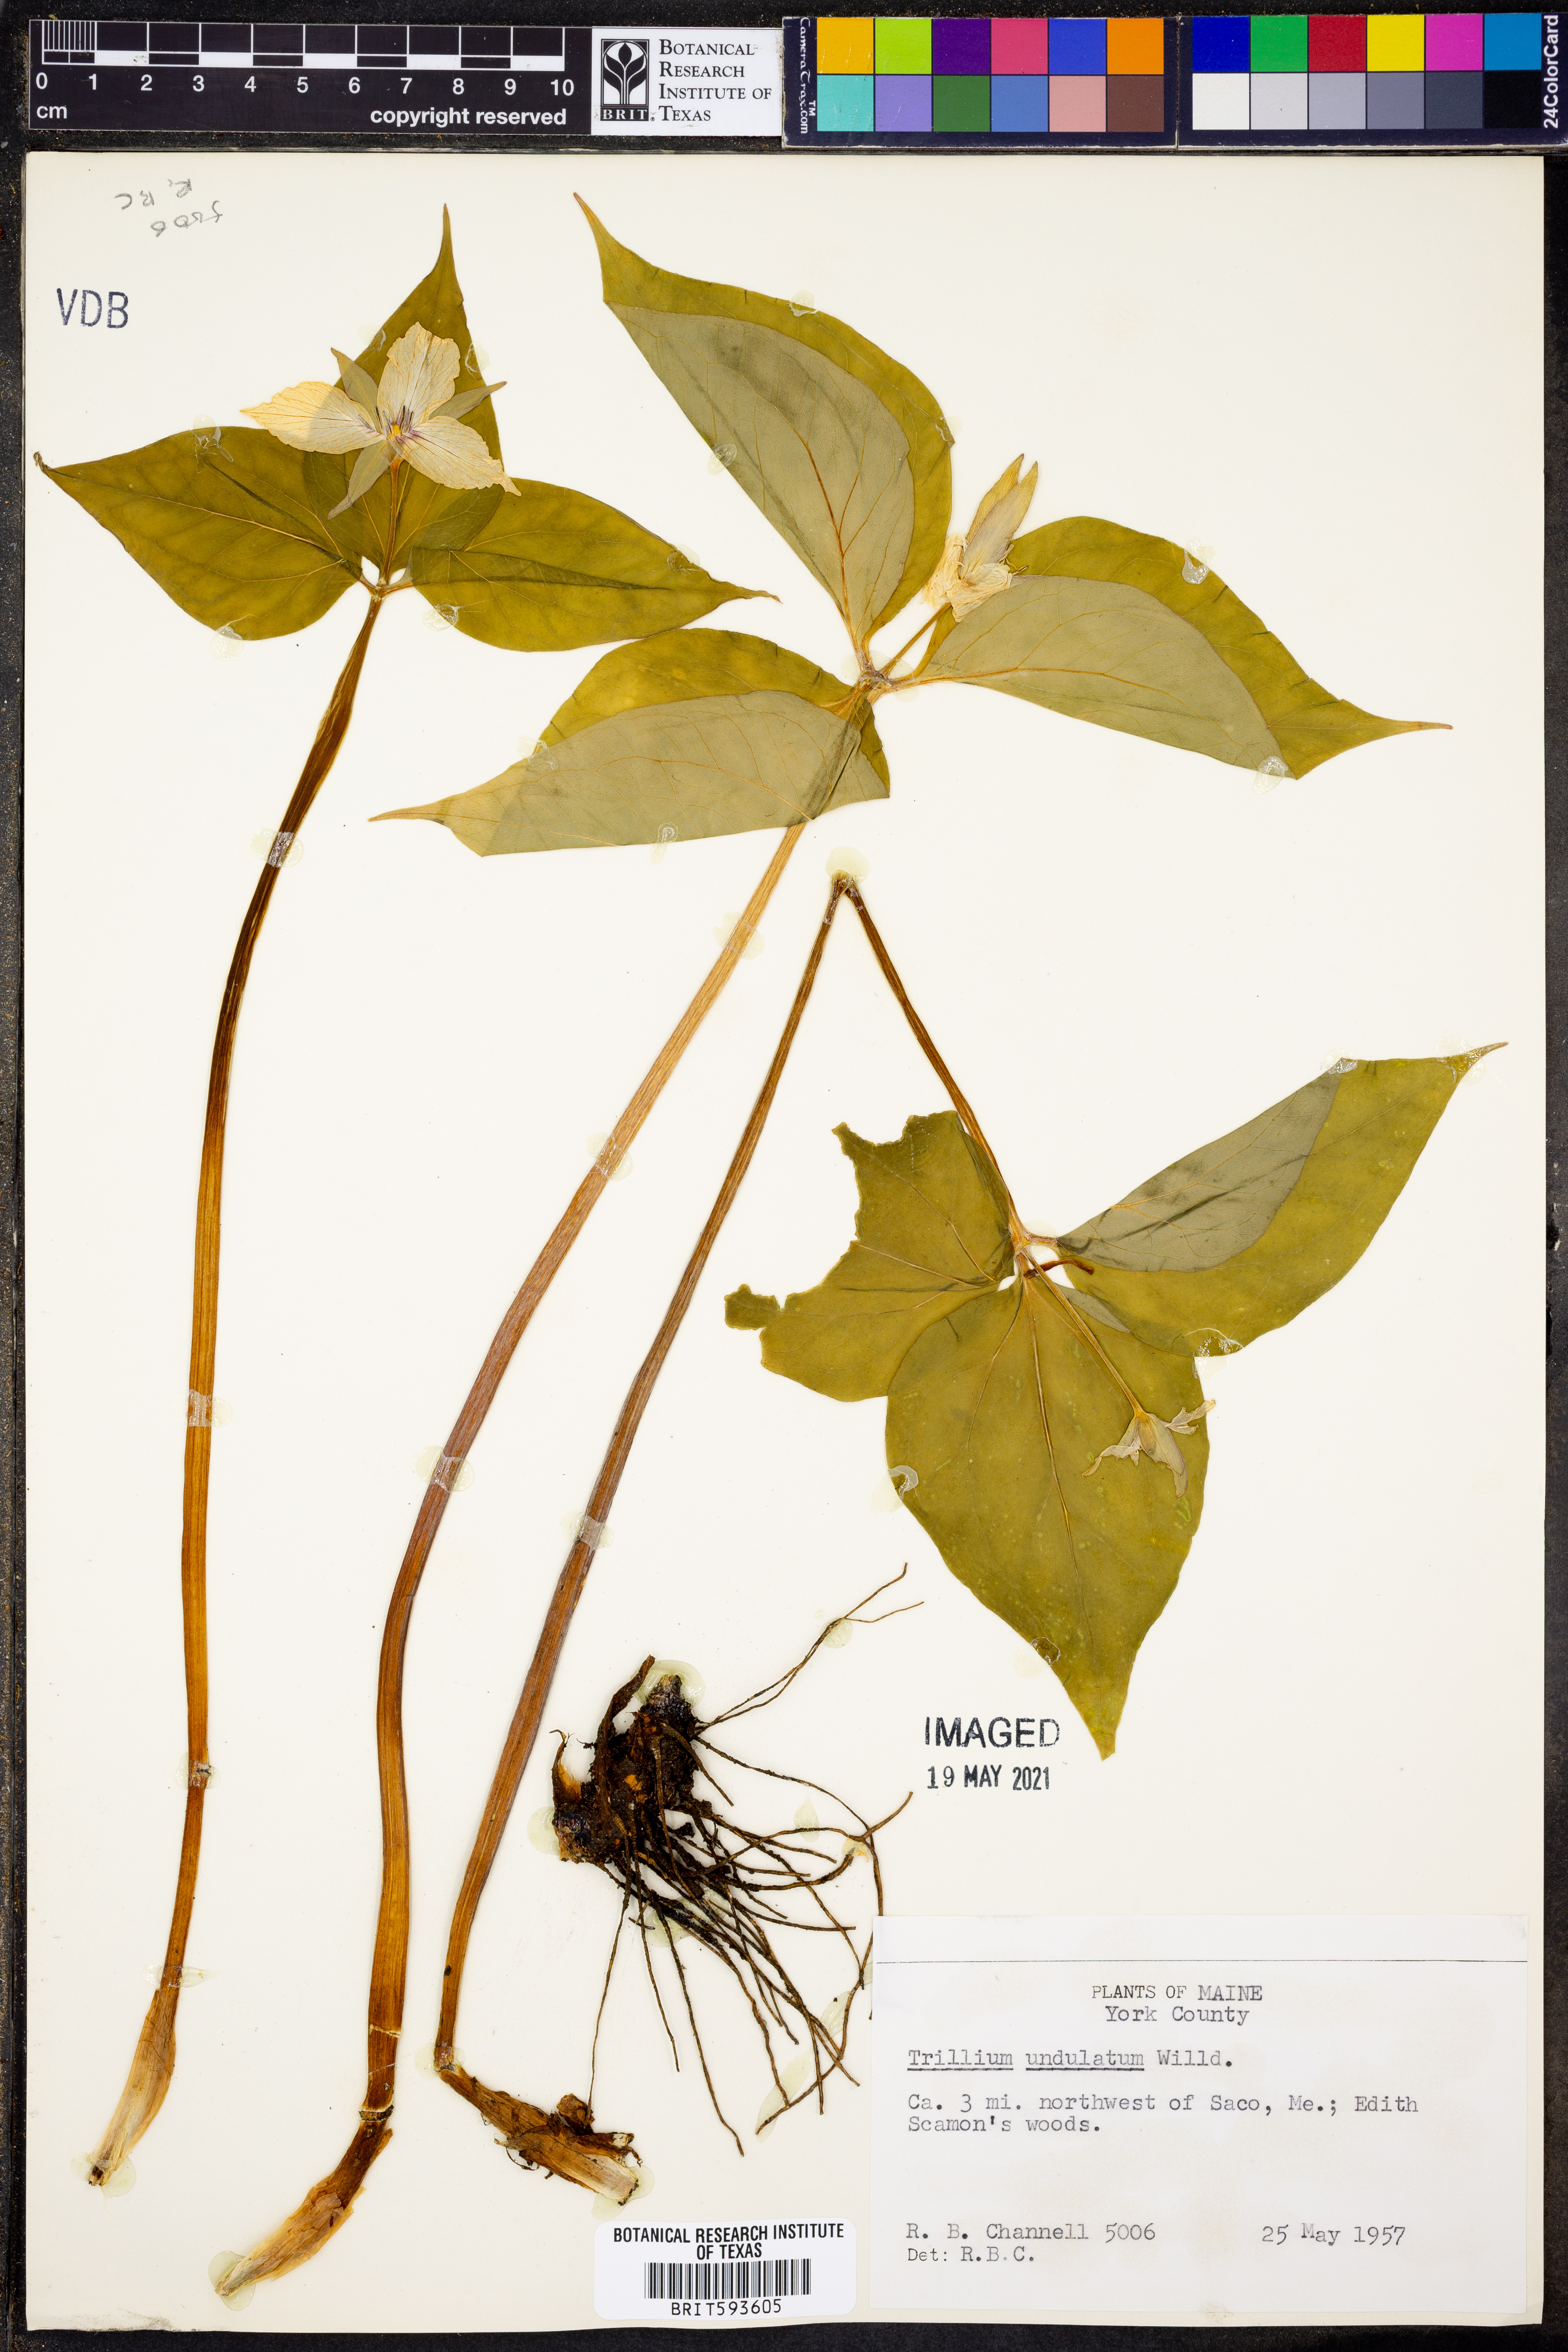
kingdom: Plantae
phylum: Tracheophyta
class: Liliopsida
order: Liliales
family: Melanthiaceae
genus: Trillium
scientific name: Trillium undulatum
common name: Paint trillium
